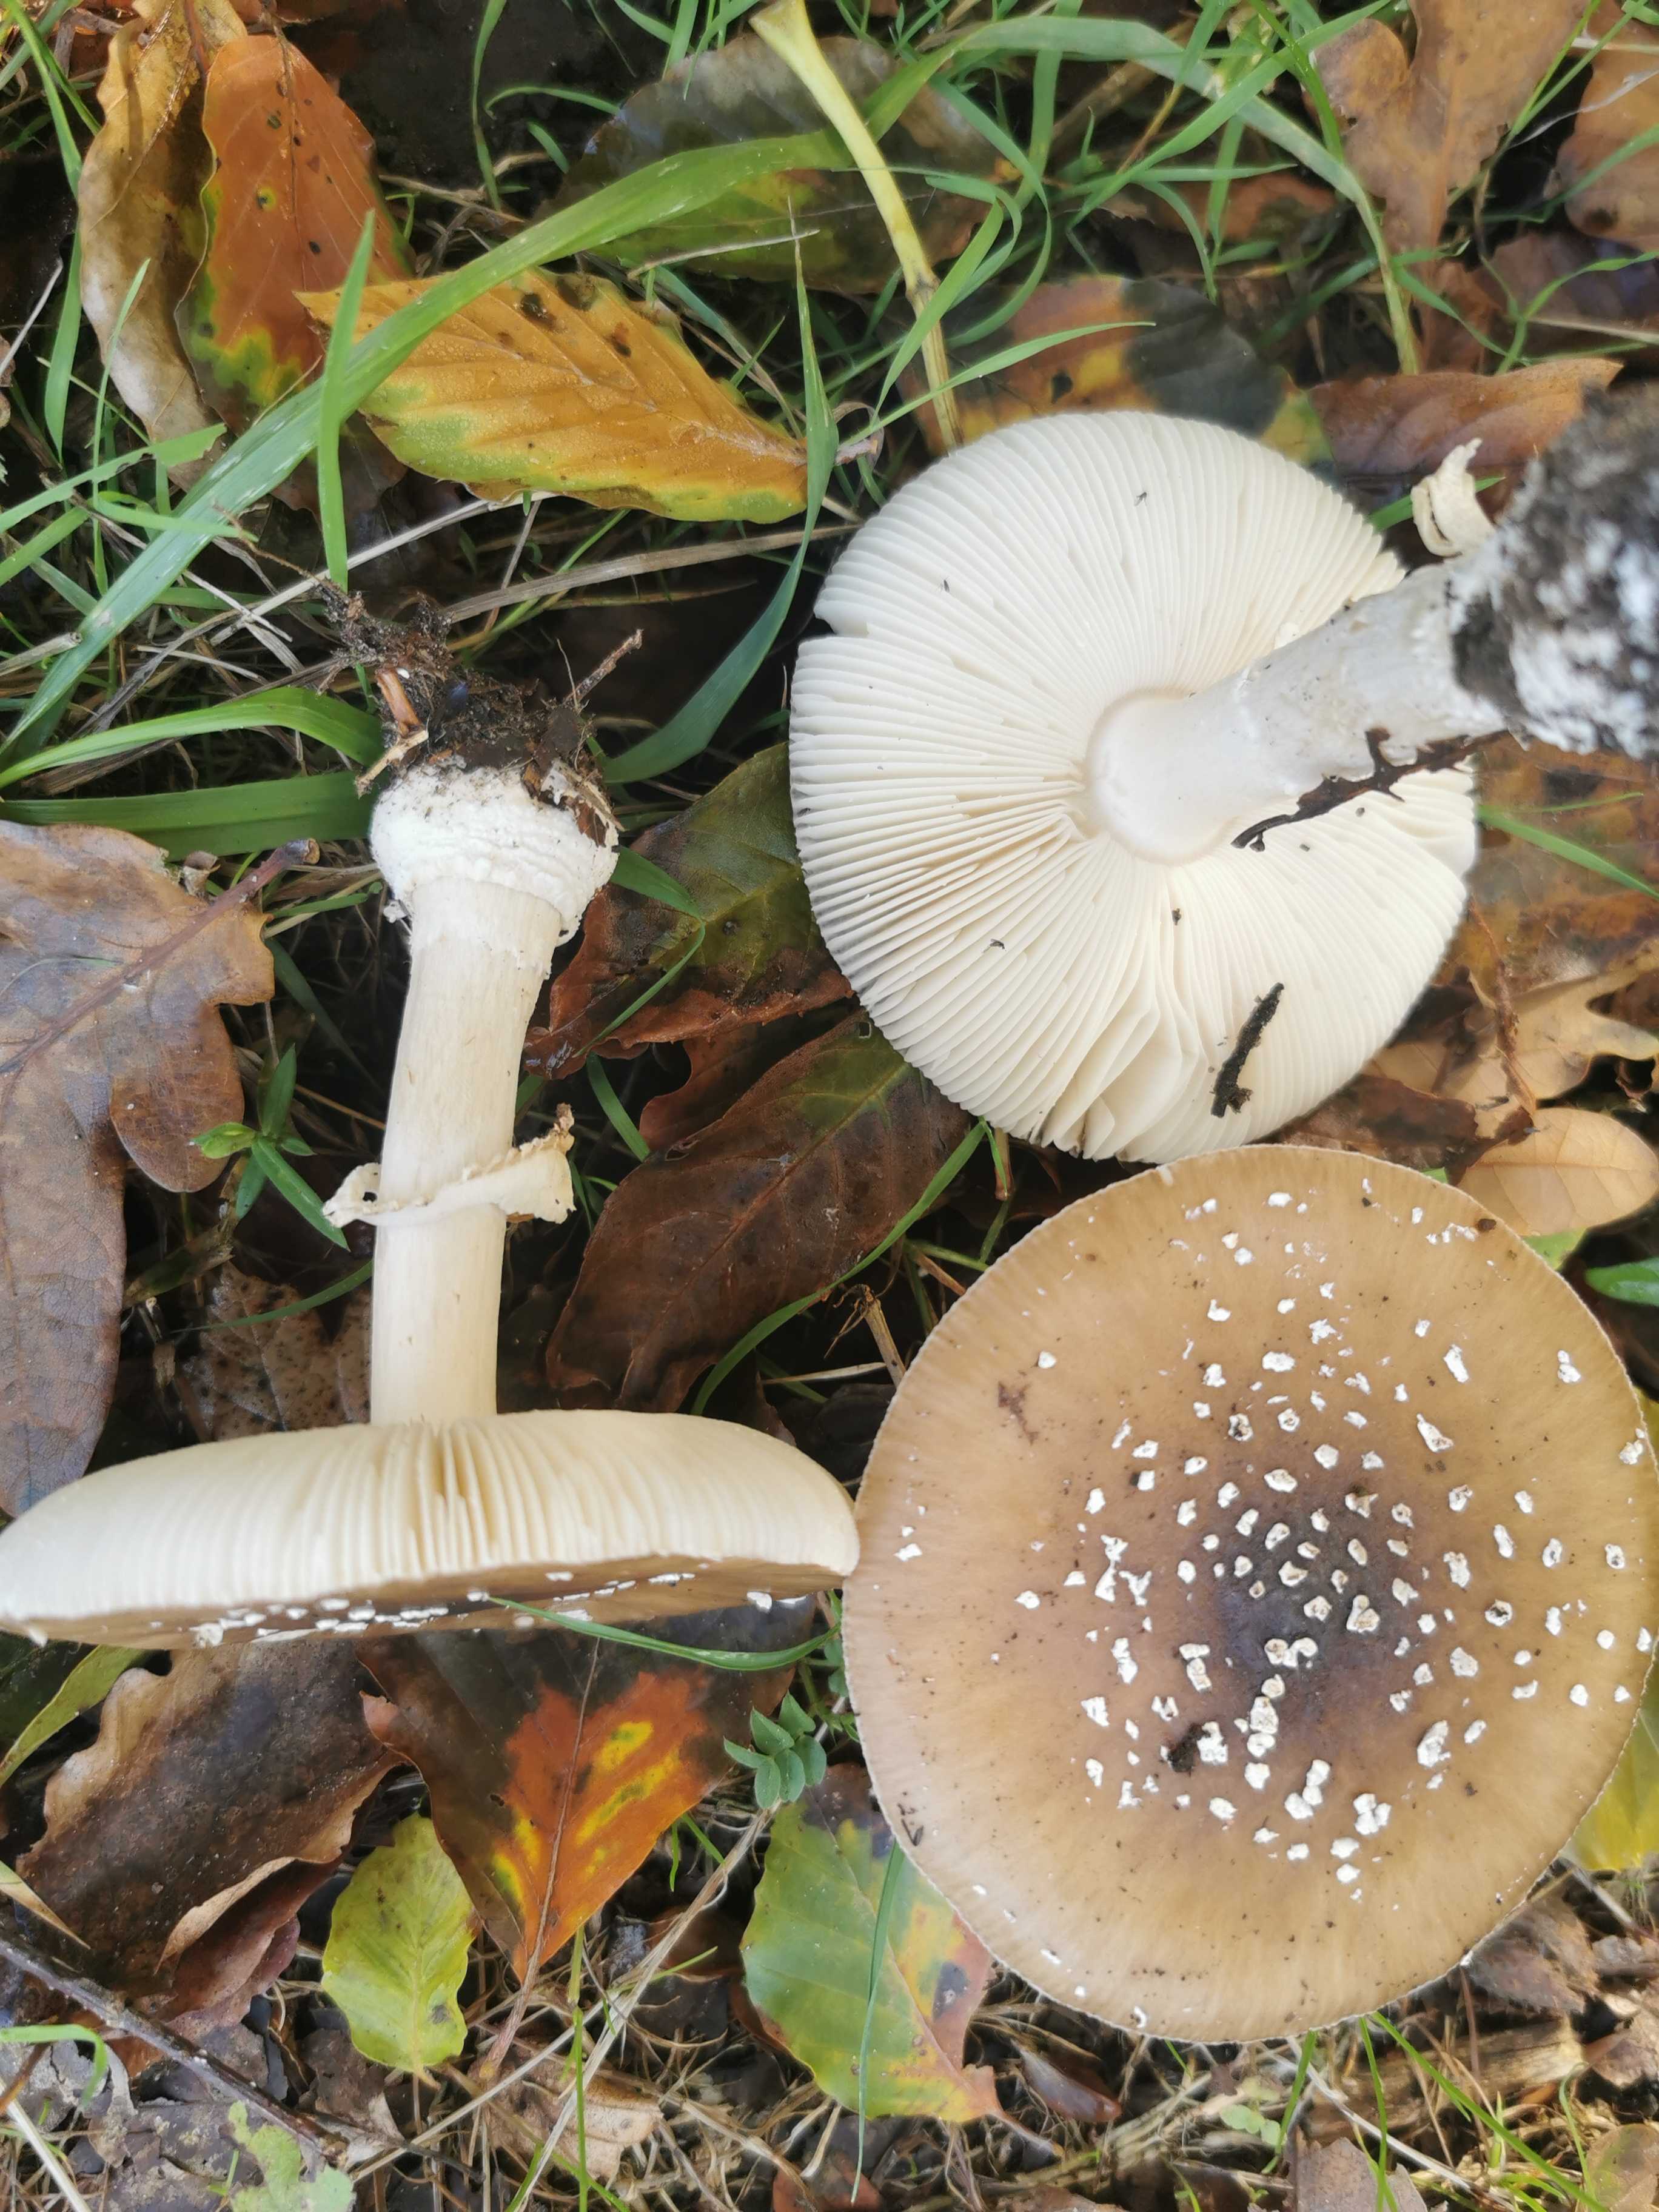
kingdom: Fungi
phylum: Basidiomycota
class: Agaricomycetes
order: Agaricales
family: Amanitaceae
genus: Amanita
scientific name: Amanita pantherina
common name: panter-fluesvamp
